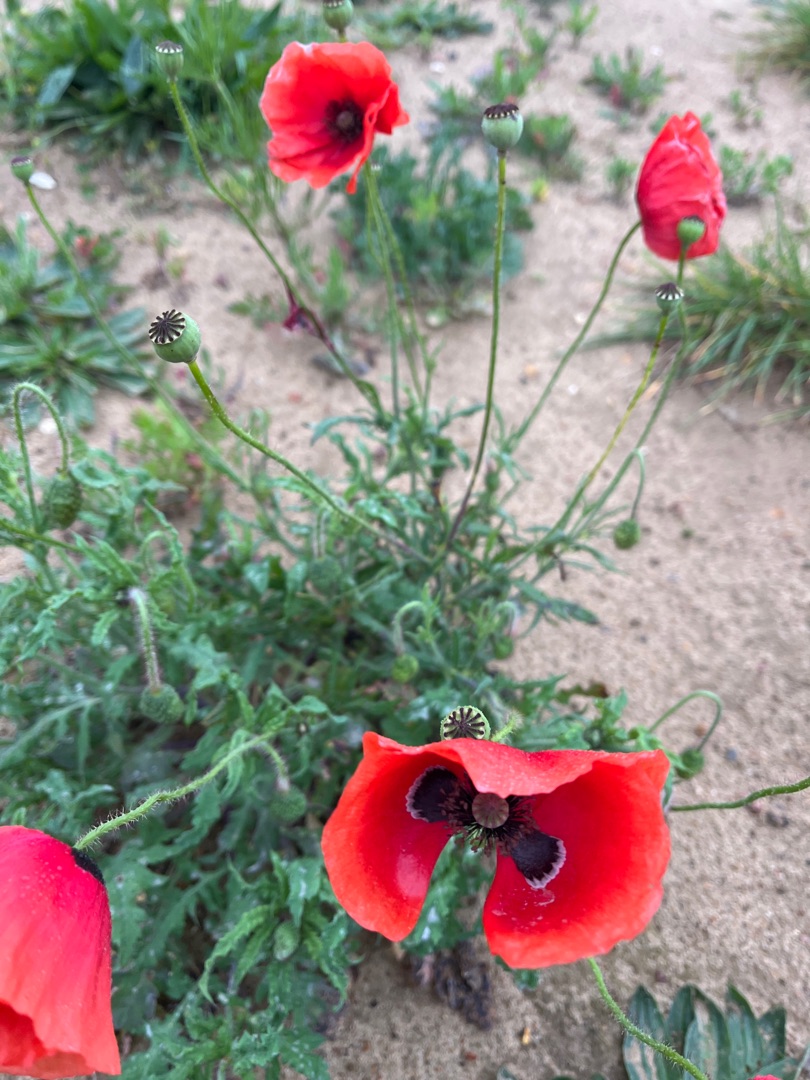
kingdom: Plantae
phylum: Tracheophyta
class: Magnoliopsida
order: Ranunculales
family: Papaveraceae
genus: Papaver
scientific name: Papaver rhoeas
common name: Korn-valmue
